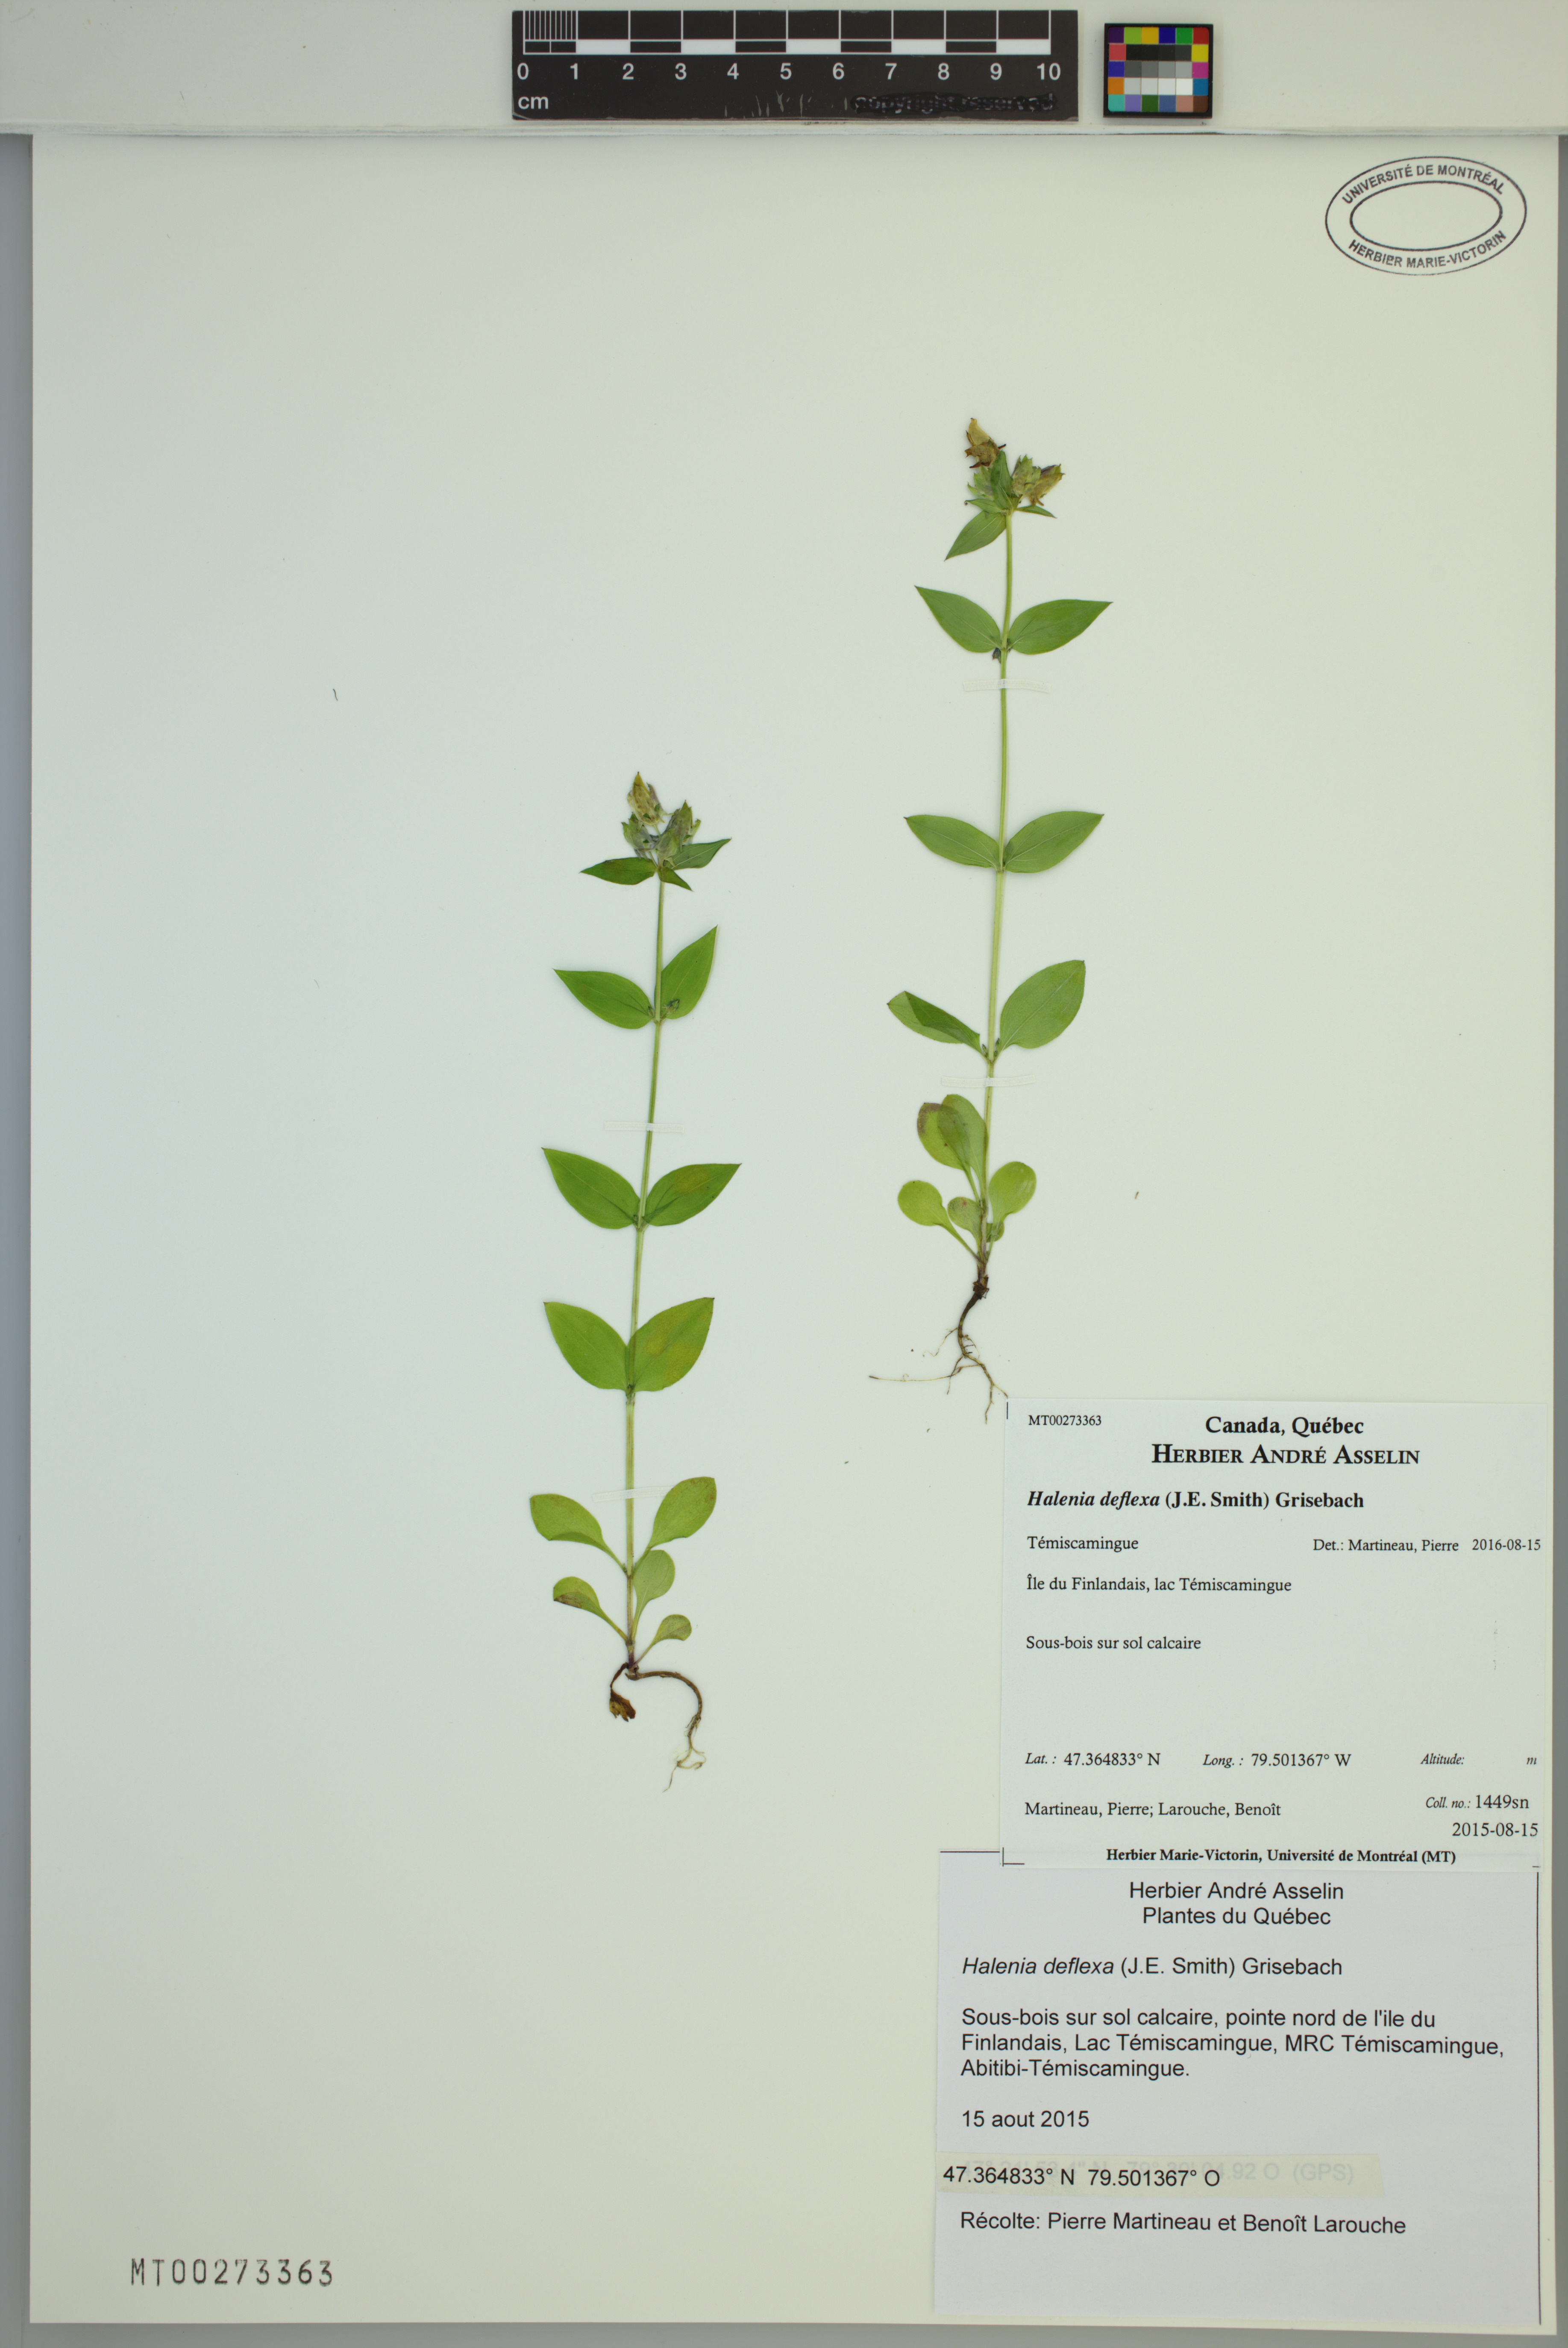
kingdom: Plantae
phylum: Tracheophyta
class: Magnoliopsida
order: Gentianales
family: Gentianaceae
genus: Halenia
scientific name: Halenia deflexa
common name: American spurred gentian
